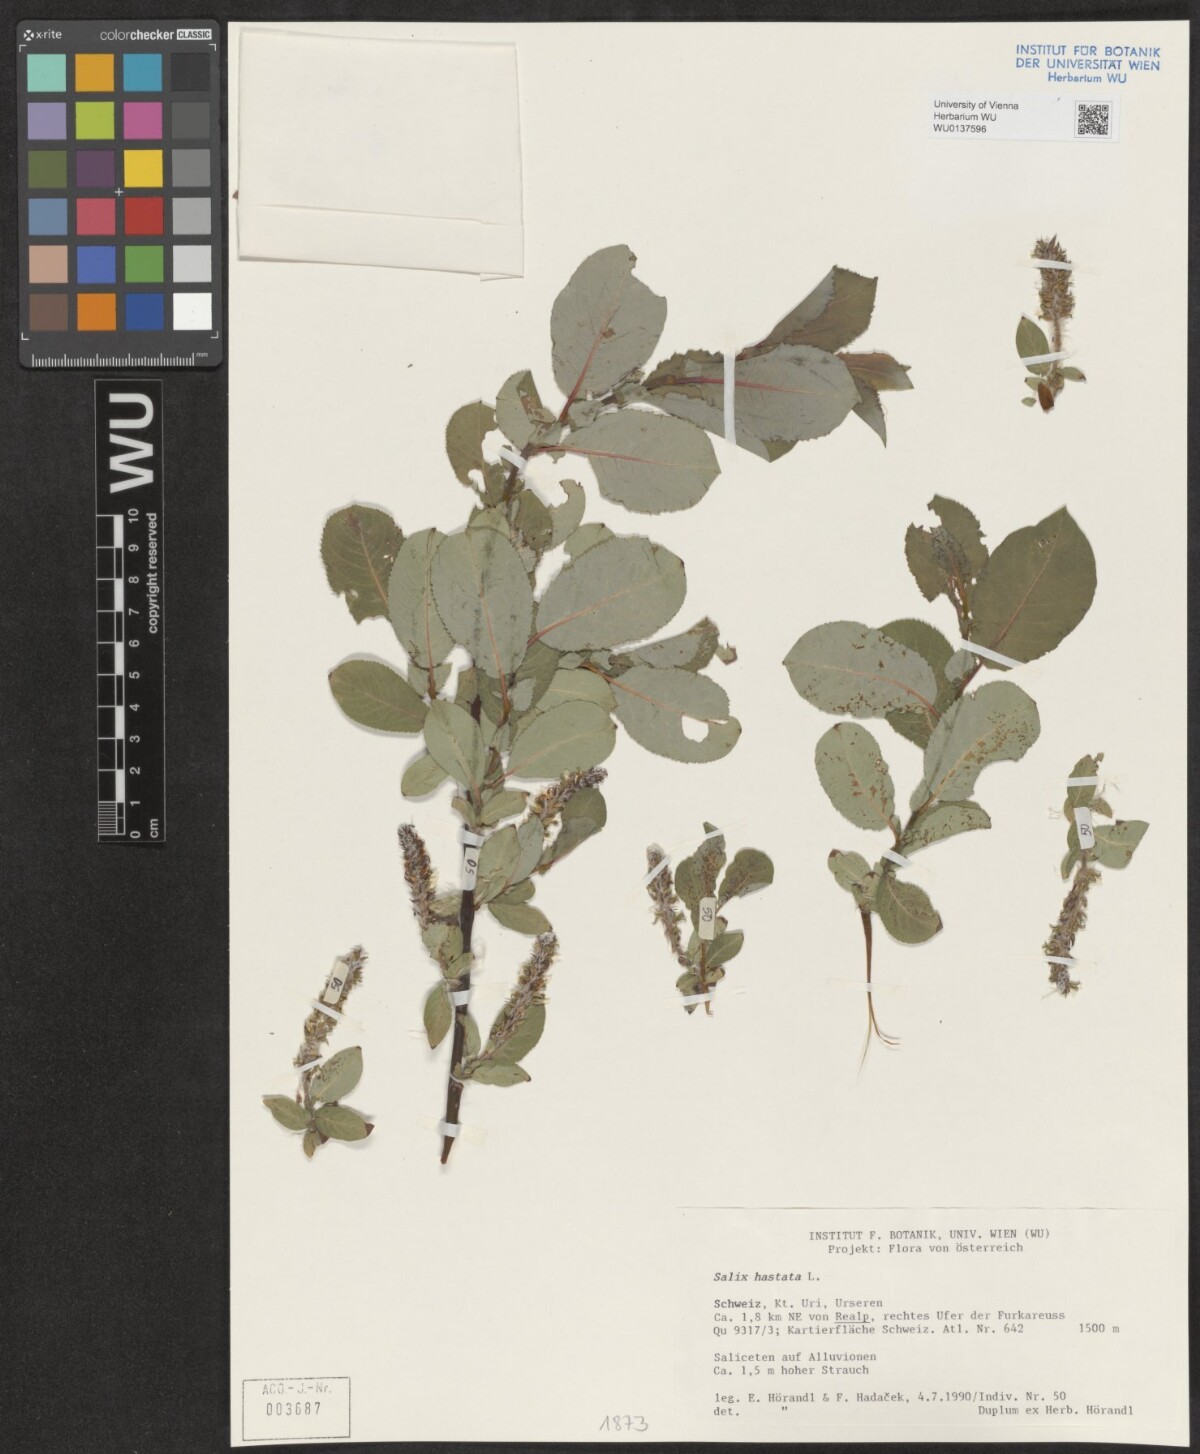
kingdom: Plantae
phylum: Tracheophyta
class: Magnoliopsida
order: Malpighiales
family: Salicaceae
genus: Salix
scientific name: Salix hastata
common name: Halberd willow
